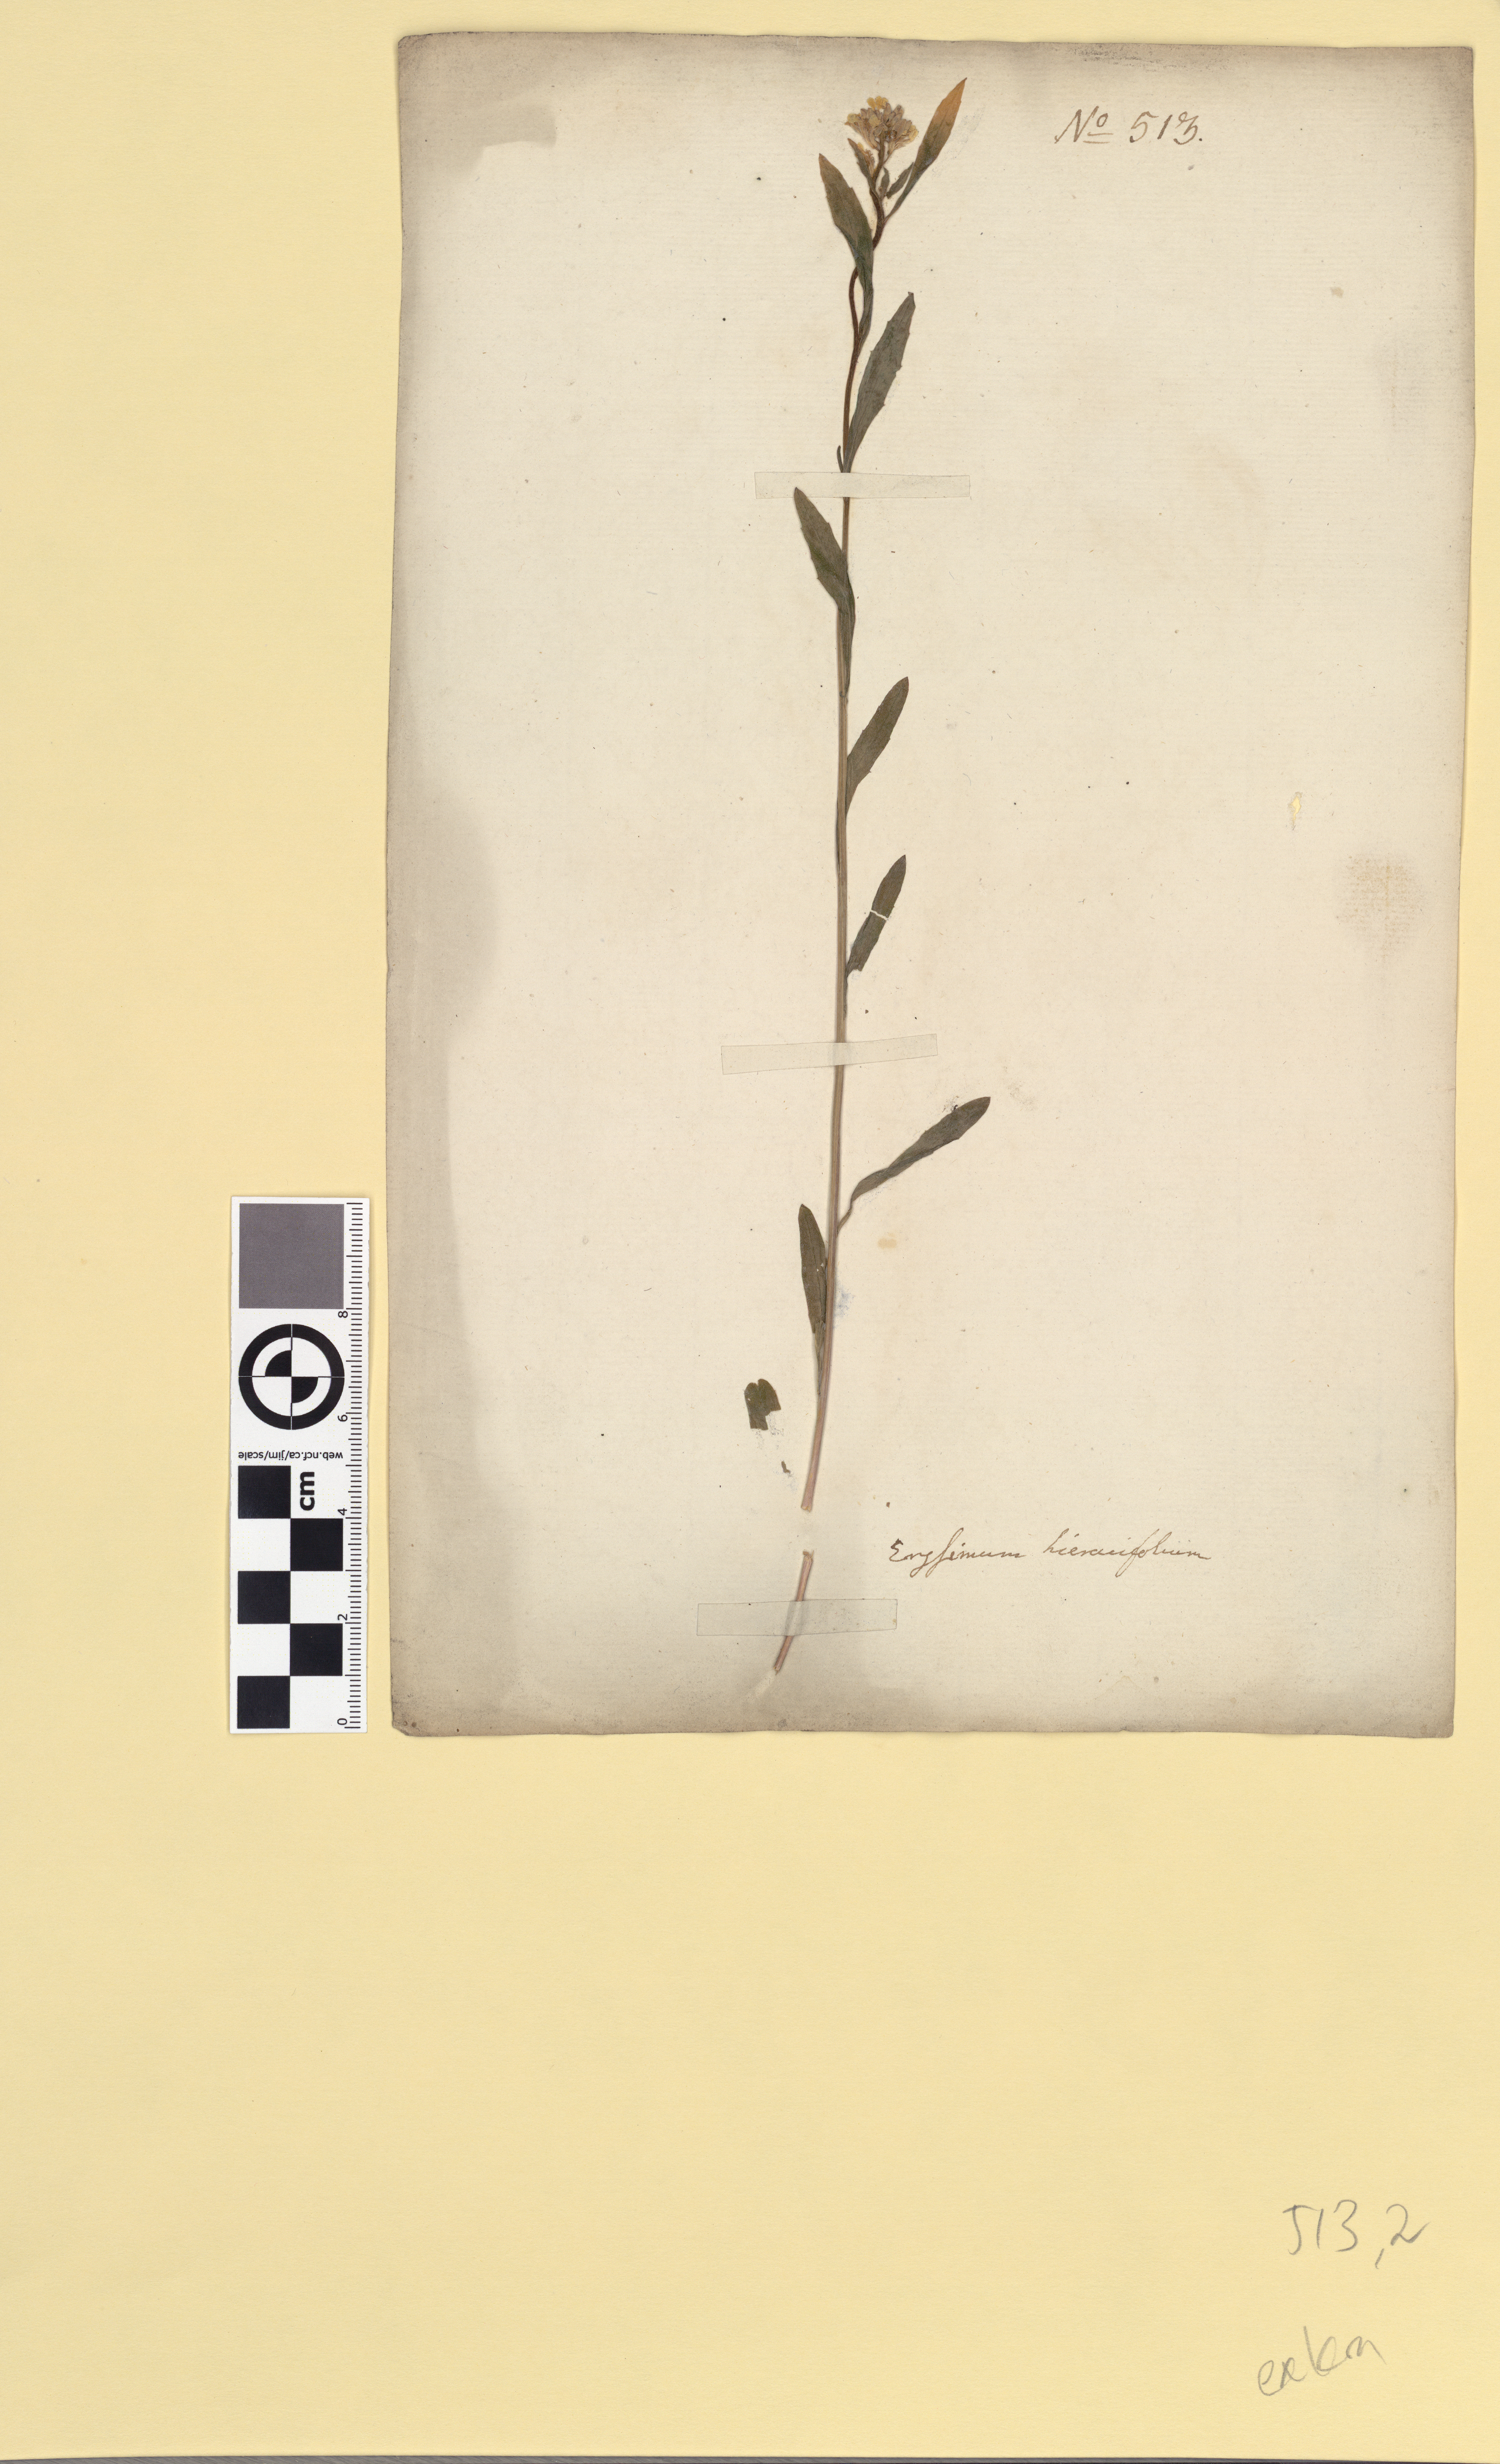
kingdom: Plantae
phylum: Tracheophyta
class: Magnoliopsida
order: Brassicales
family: Brassicaceae
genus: Erysimum
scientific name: Erysimum virgatum
